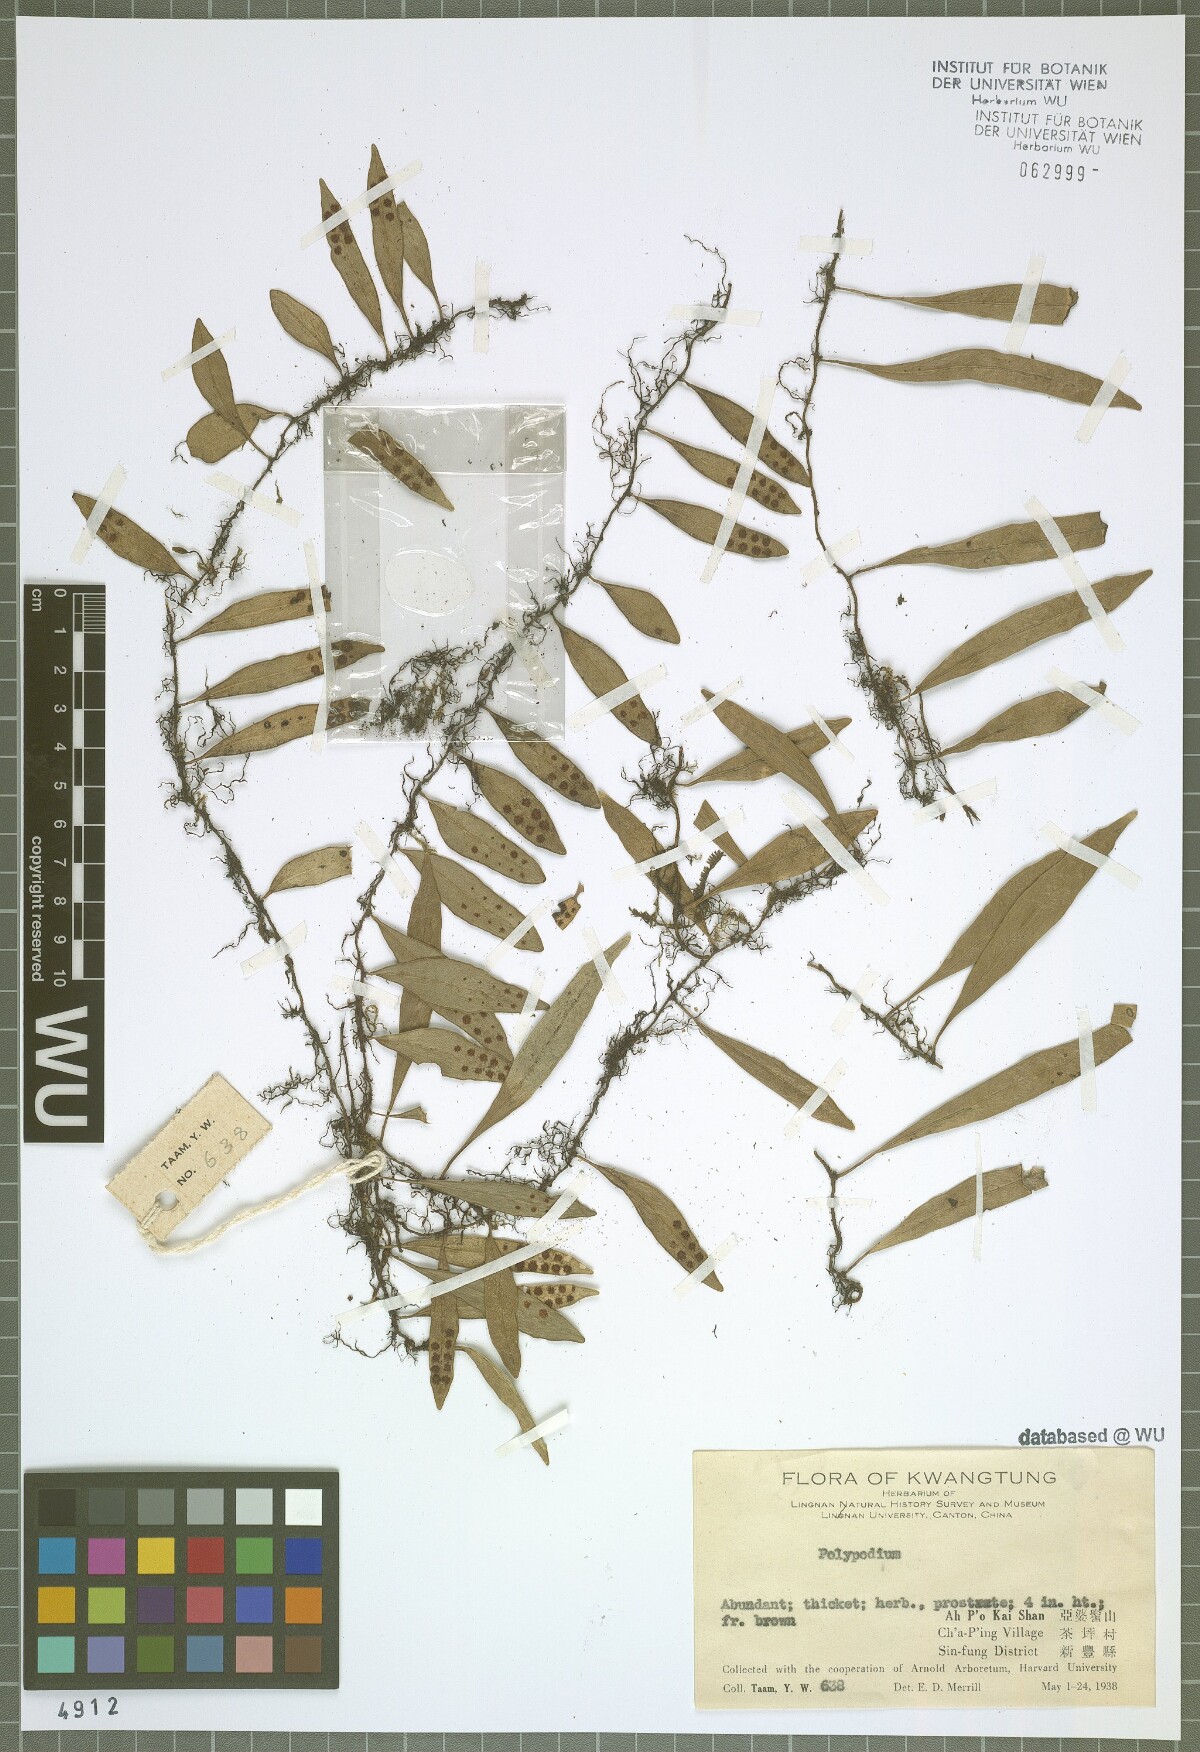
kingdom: Plantae
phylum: Tracheophyta
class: Polypodiopsida
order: Polypodiales
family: Polypodiaceae
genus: Polypodium
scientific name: Polypodium
